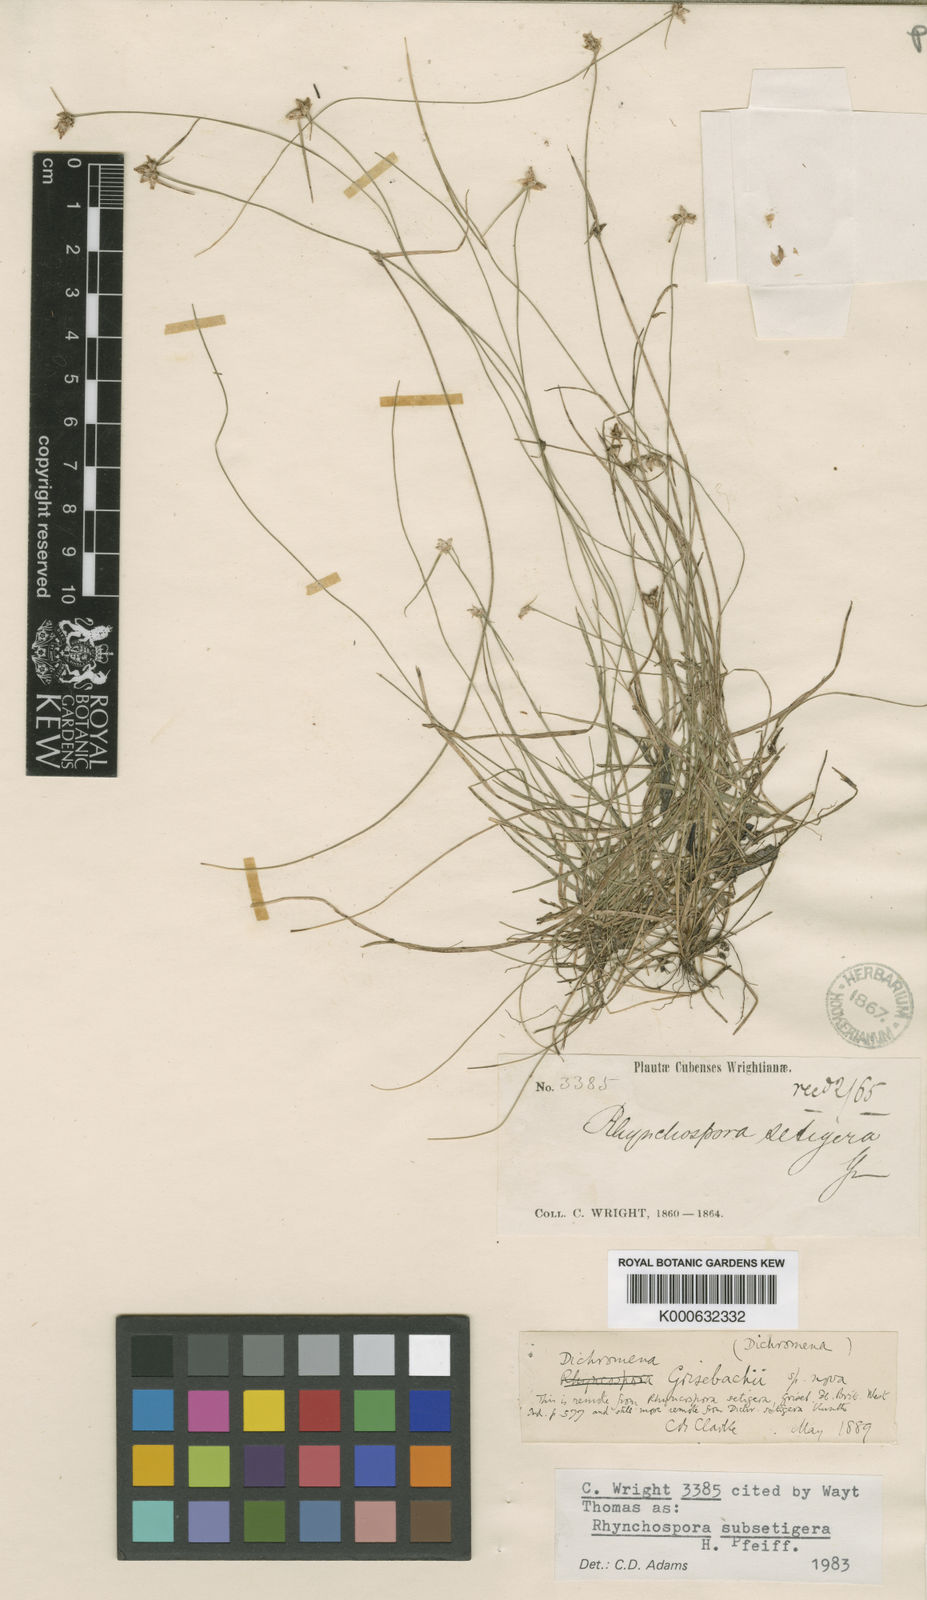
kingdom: Plantae
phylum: Tracheophyta
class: Liliopsida
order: Poales
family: Cyperaceae
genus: Rhynchospora
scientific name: Rhynchospora subsetigera
